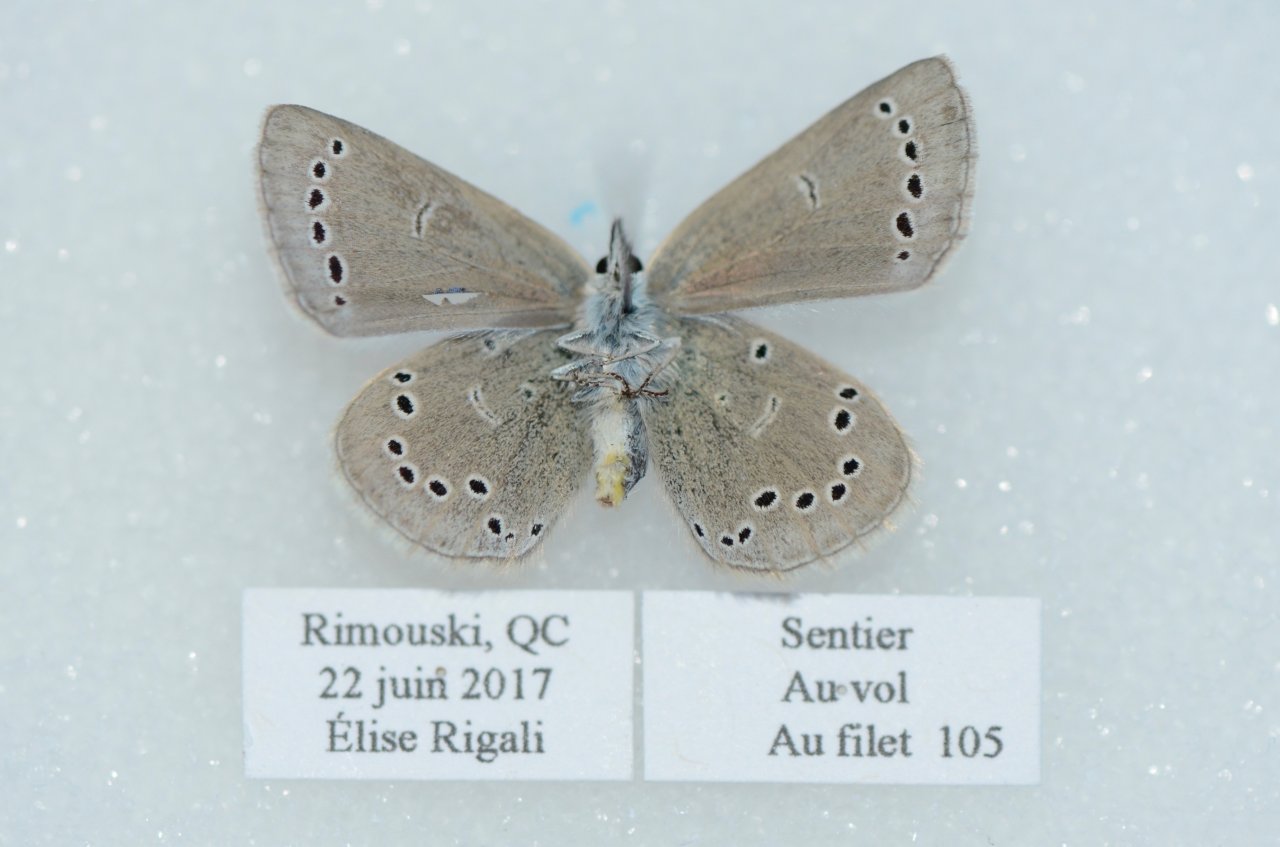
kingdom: Animalia
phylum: Arthropoda
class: Insecta
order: Lepidoptera
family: Lycaenidae
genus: Glaucopsyche
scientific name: Glaucopsyche lygdamus
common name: Silvery Blue
